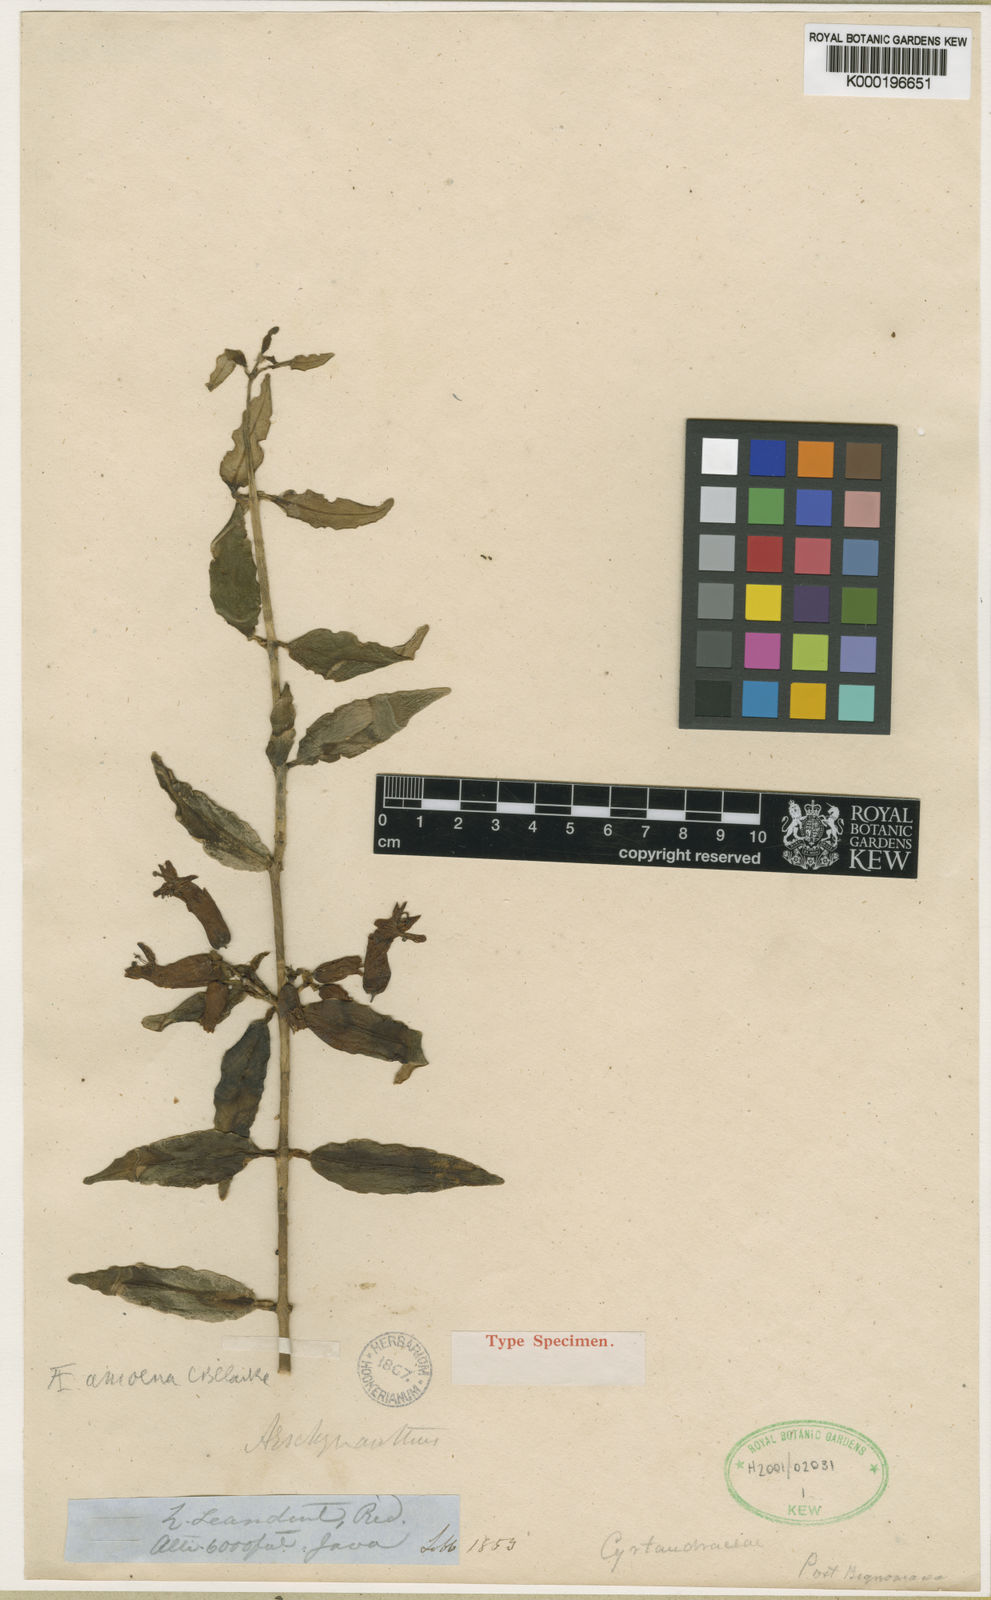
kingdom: Plantae
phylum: Tracheophyta
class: Magnoliopsida
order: Lamiales
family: Gesneriaceae
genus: Aeschynanthus
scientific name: Aeschynanthus amoenus
